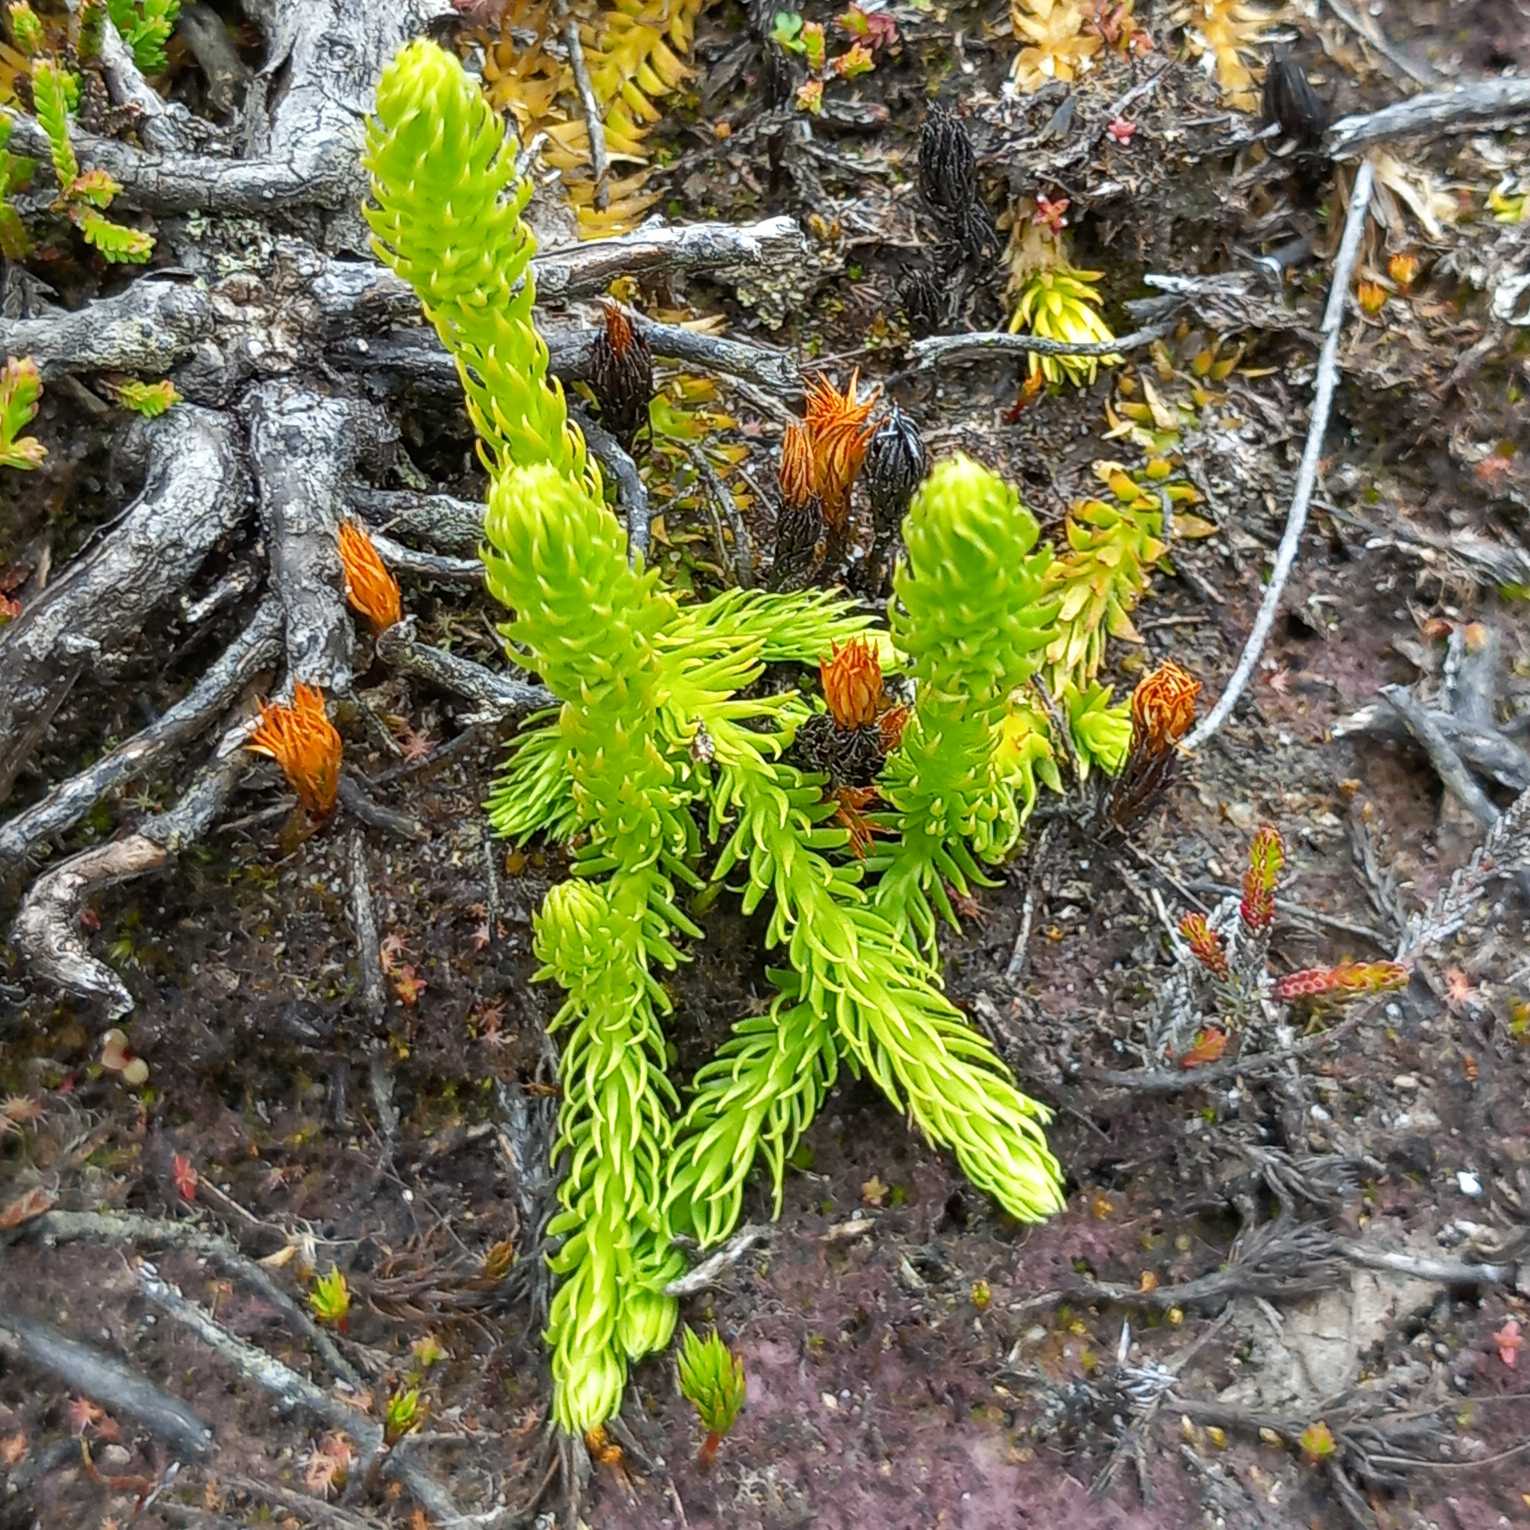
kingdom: Plantae
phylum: Tracheophyta
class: Lycopodiopsida
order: Lycopodiales
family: Lycopodiaceae
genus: Lycopodiella
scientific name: Lycopodiella inundata
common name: Liden ulvefod
